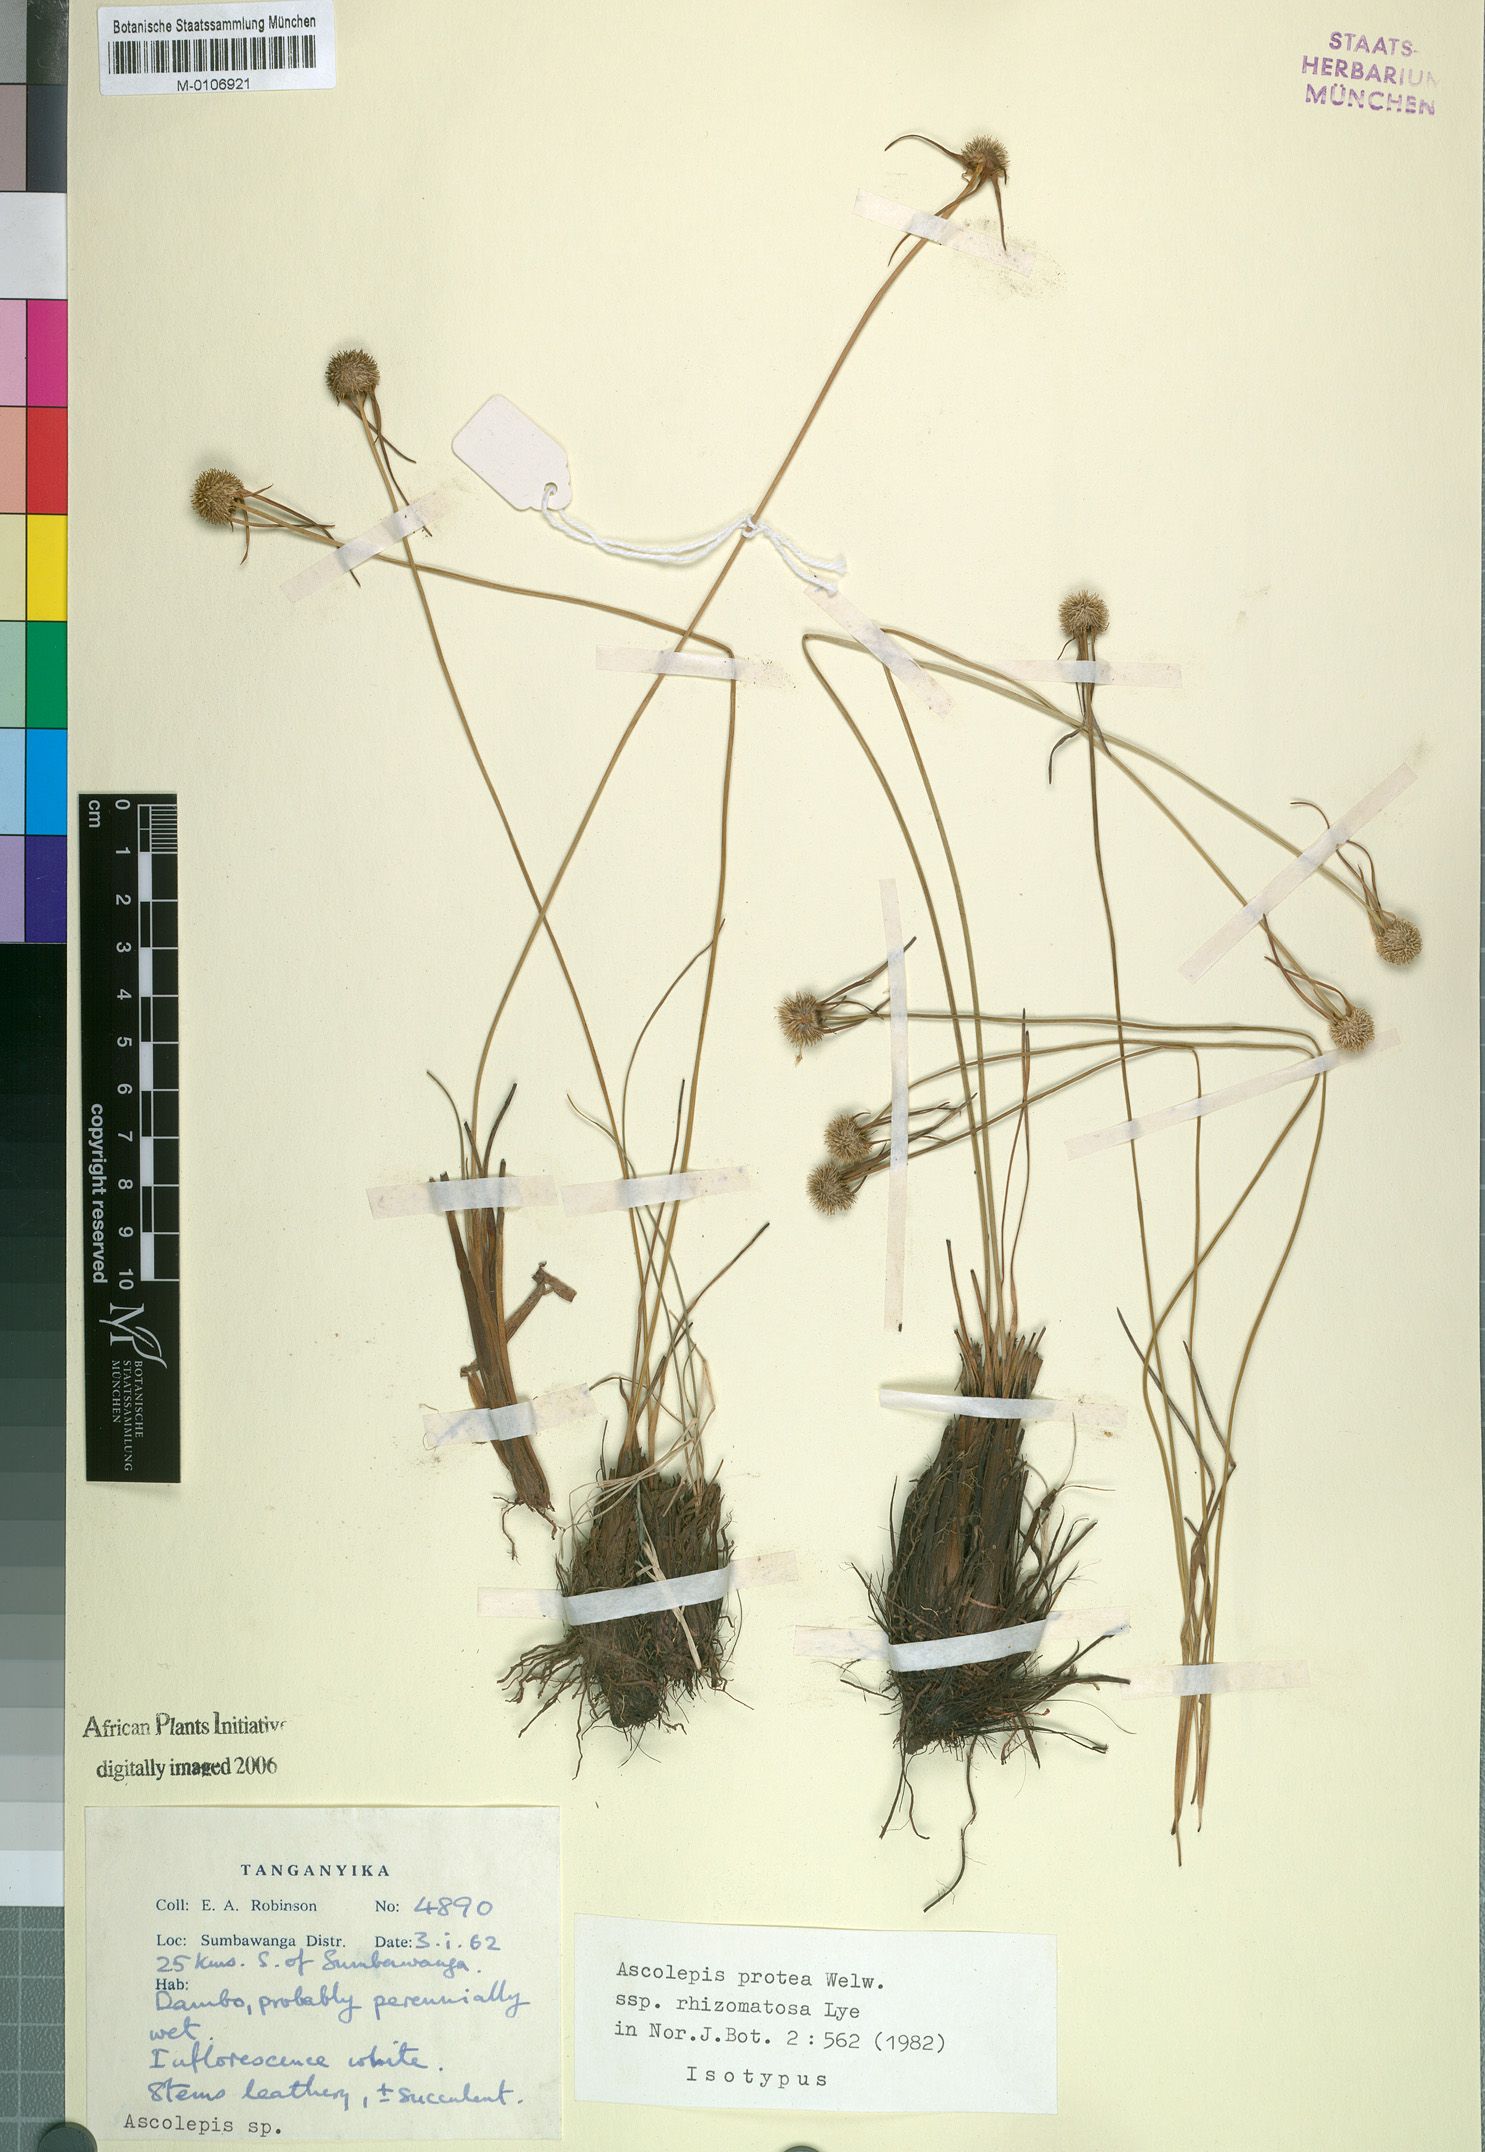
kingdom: Plantae
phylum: Tracheophyta
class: Liliopsida
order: Poales
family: Cyperaceae
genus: Cyperus
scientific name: Cyperus proteus
